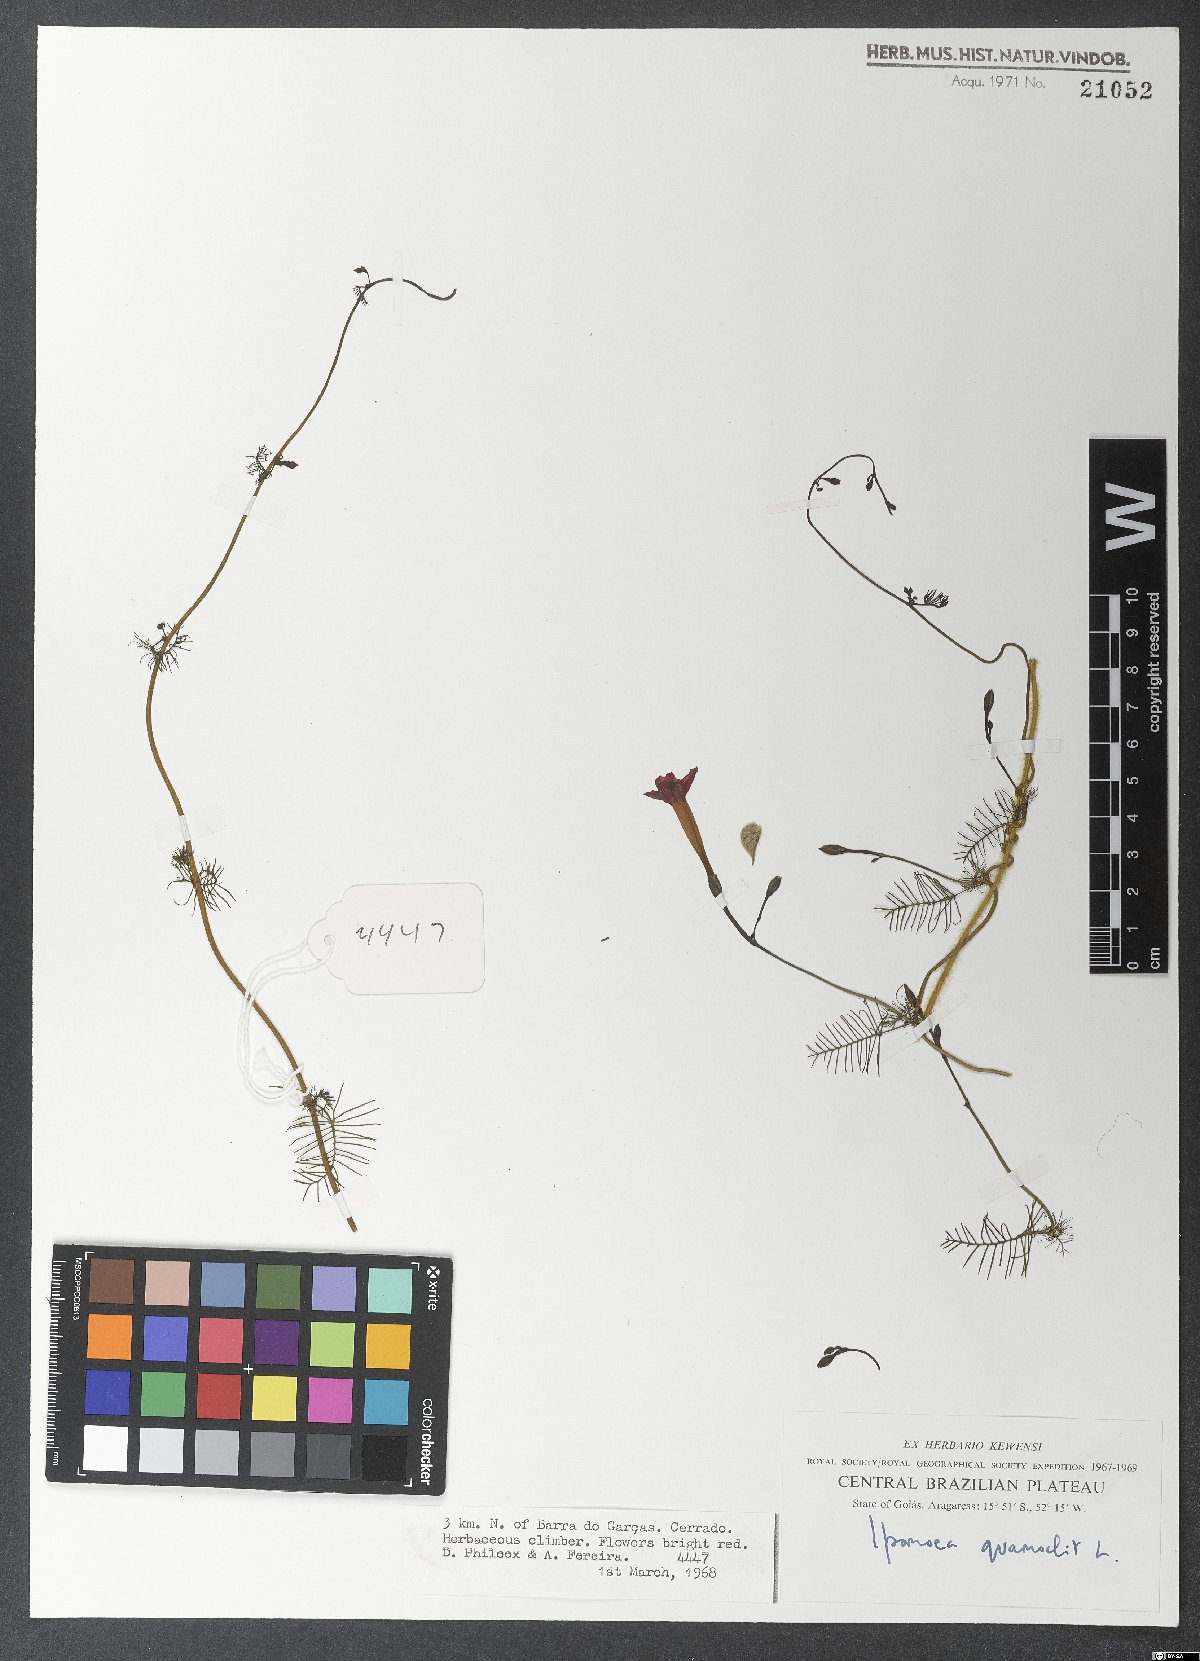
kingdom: Plantae
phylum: Tracheophyta
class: Magnoliopsida
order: Solanales
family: Convolvulaceae
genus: Ipomoea
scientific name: Ipomoea quamoclit
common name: Cypress vine
